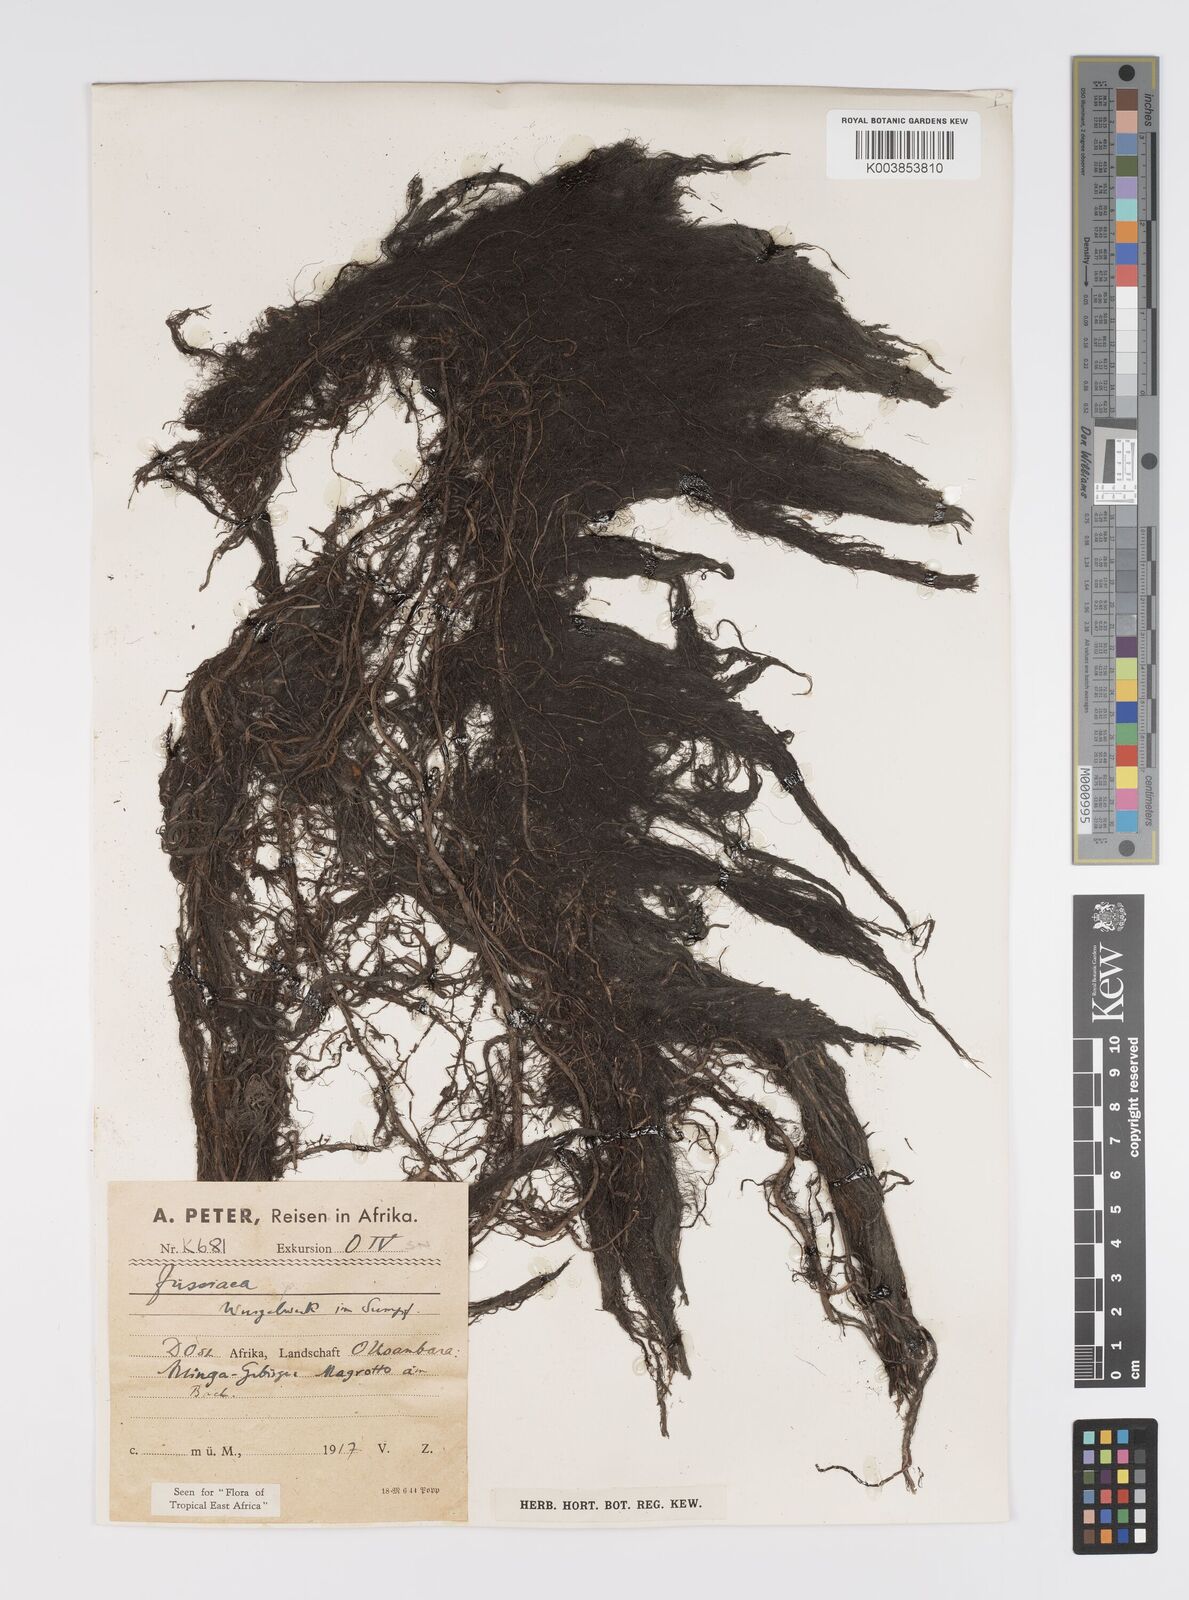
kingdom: Plantae
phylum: Tracheophyta
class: Magnoliopsida
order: Myrtales
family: Onagraceae
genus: Ludwigia
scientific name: Ludwigia
